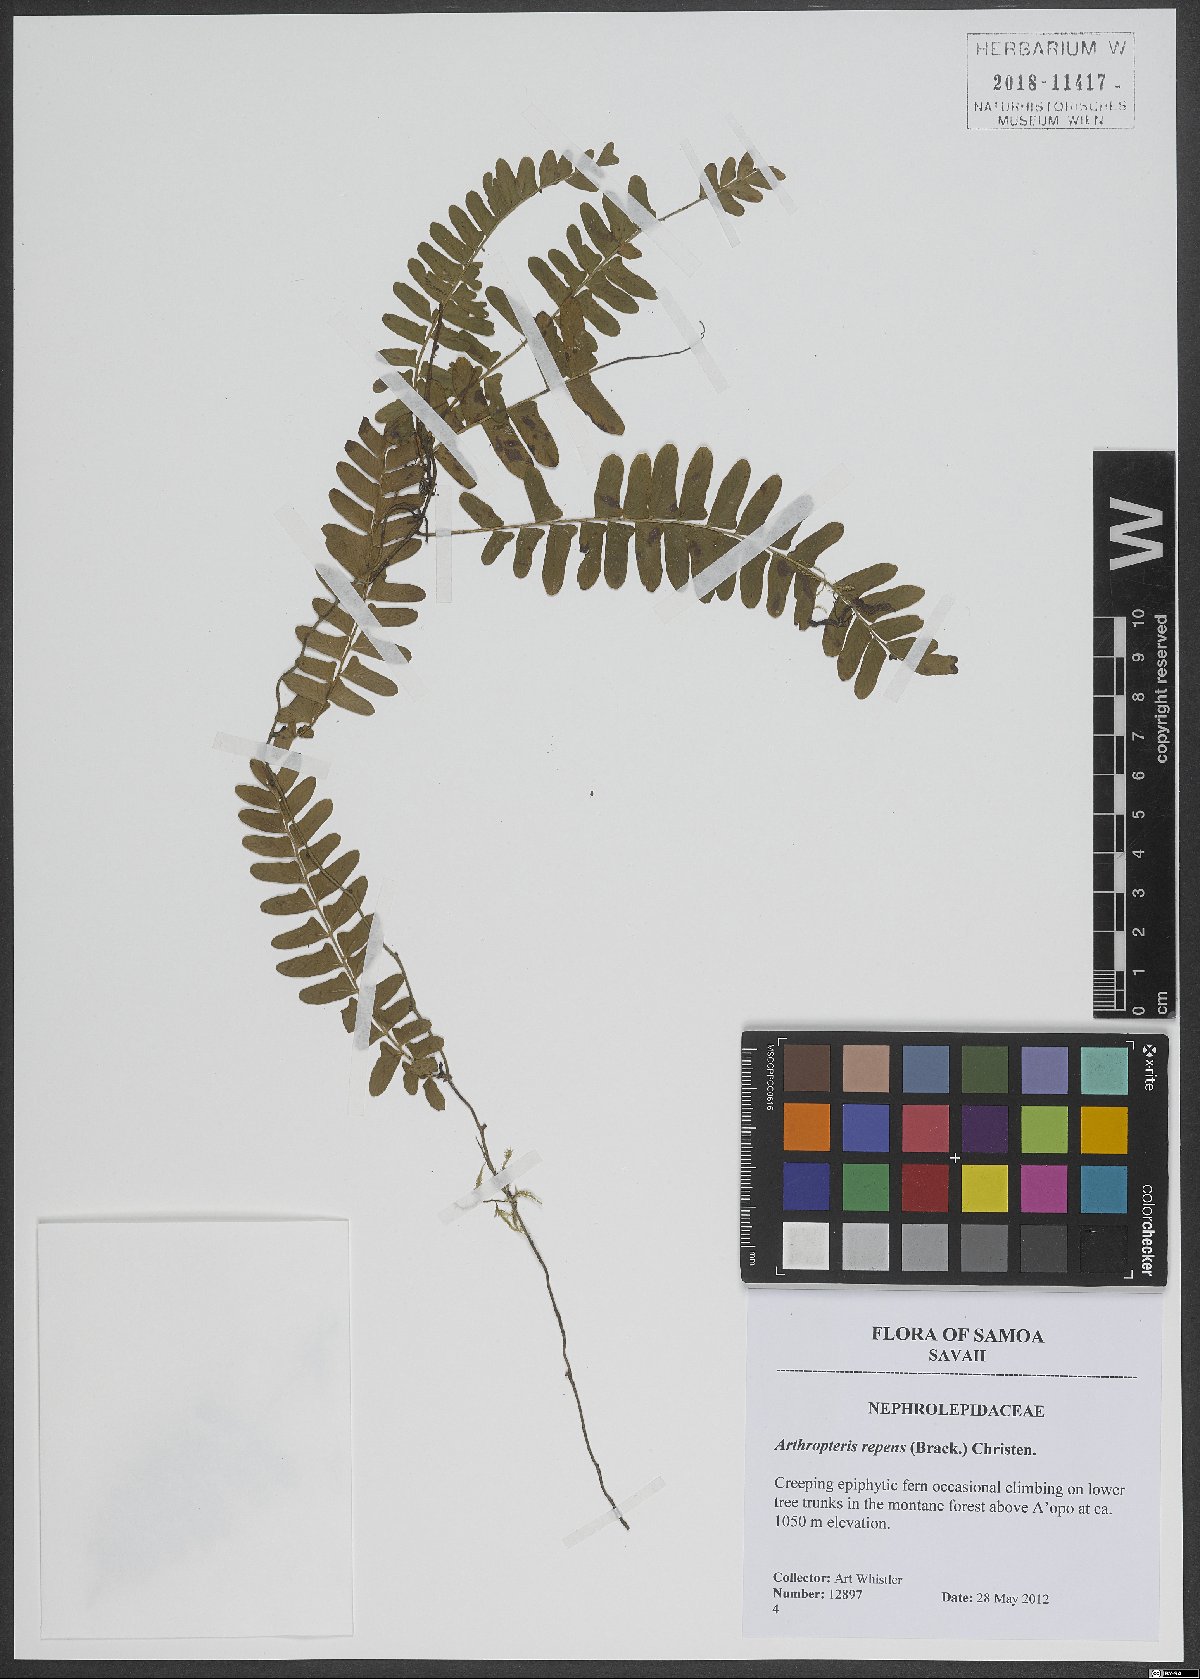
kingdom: Plantae
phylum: Tracheophyta
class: Polypodiopsida
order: Polypodiales
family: Tectariaceae
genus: Arthropteris
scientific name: Arthropteris palisotii
